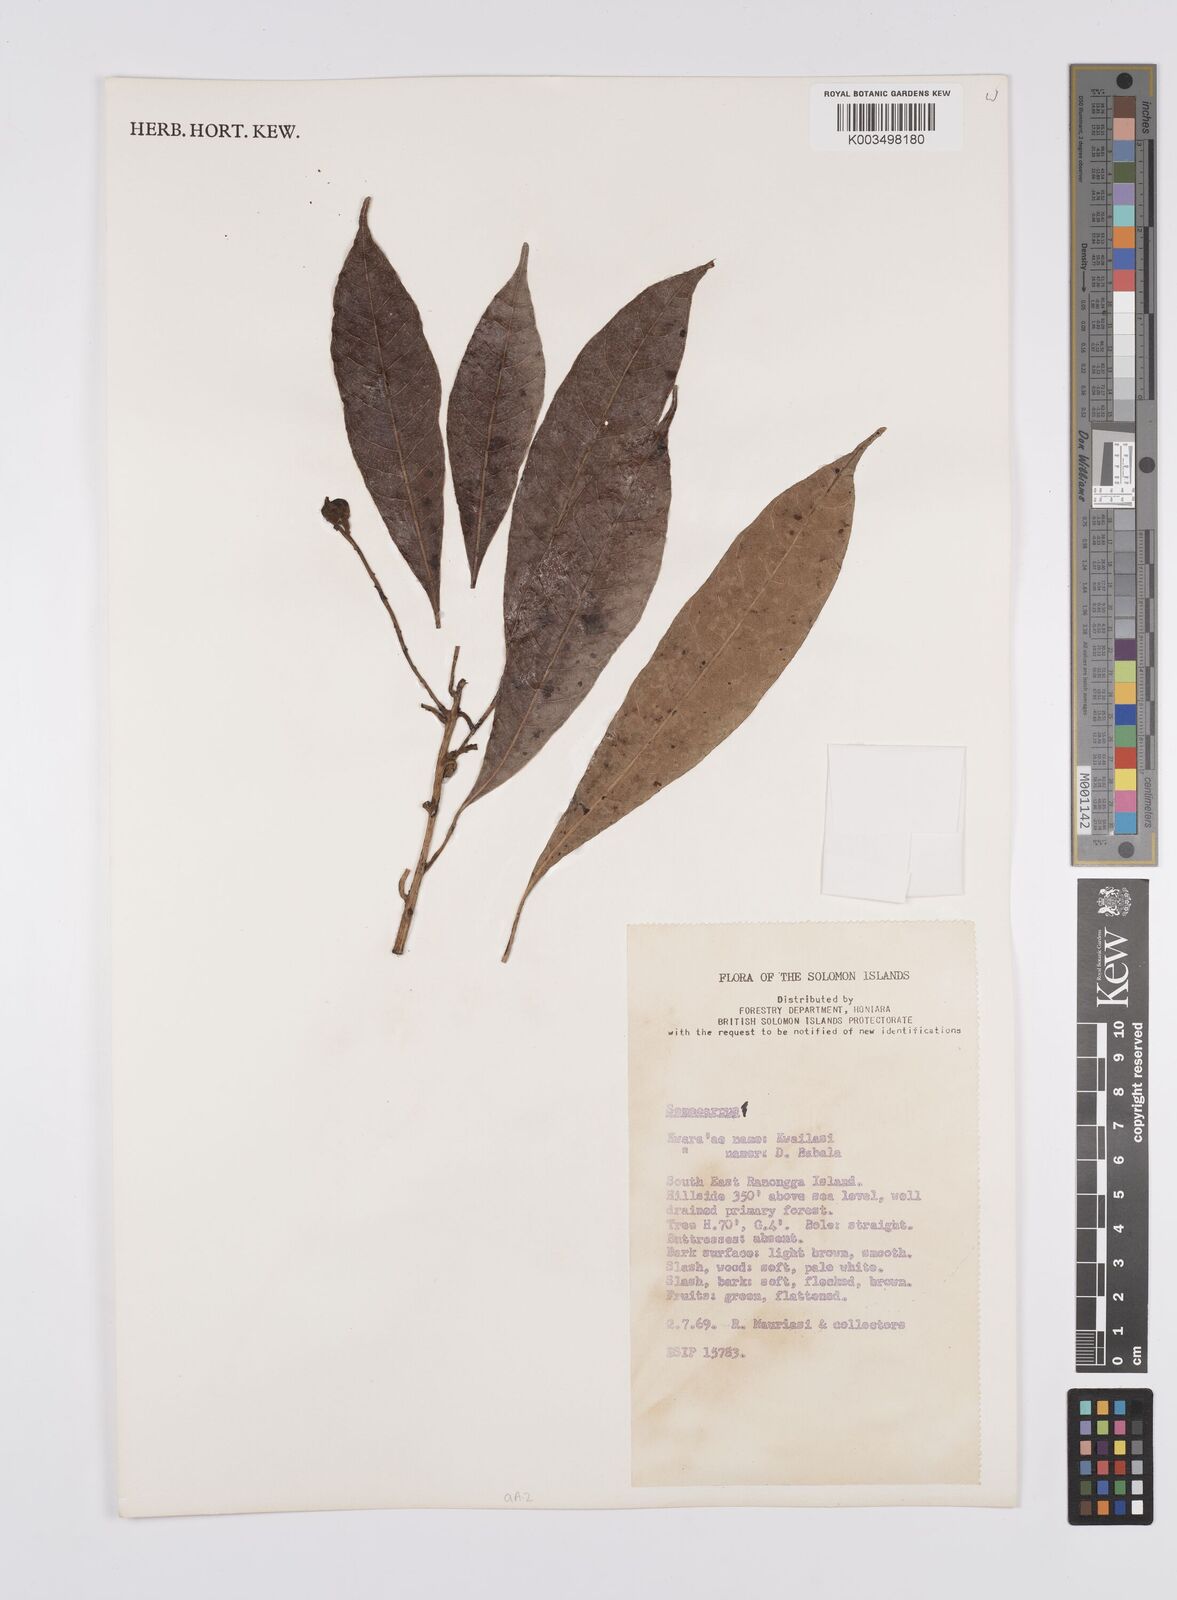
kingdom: Plantae
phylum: Tracheophyta
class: Magnoliopsida
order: Sapindales
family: Anacardiaceae
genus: Semecarpus
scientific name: Semecarpus
